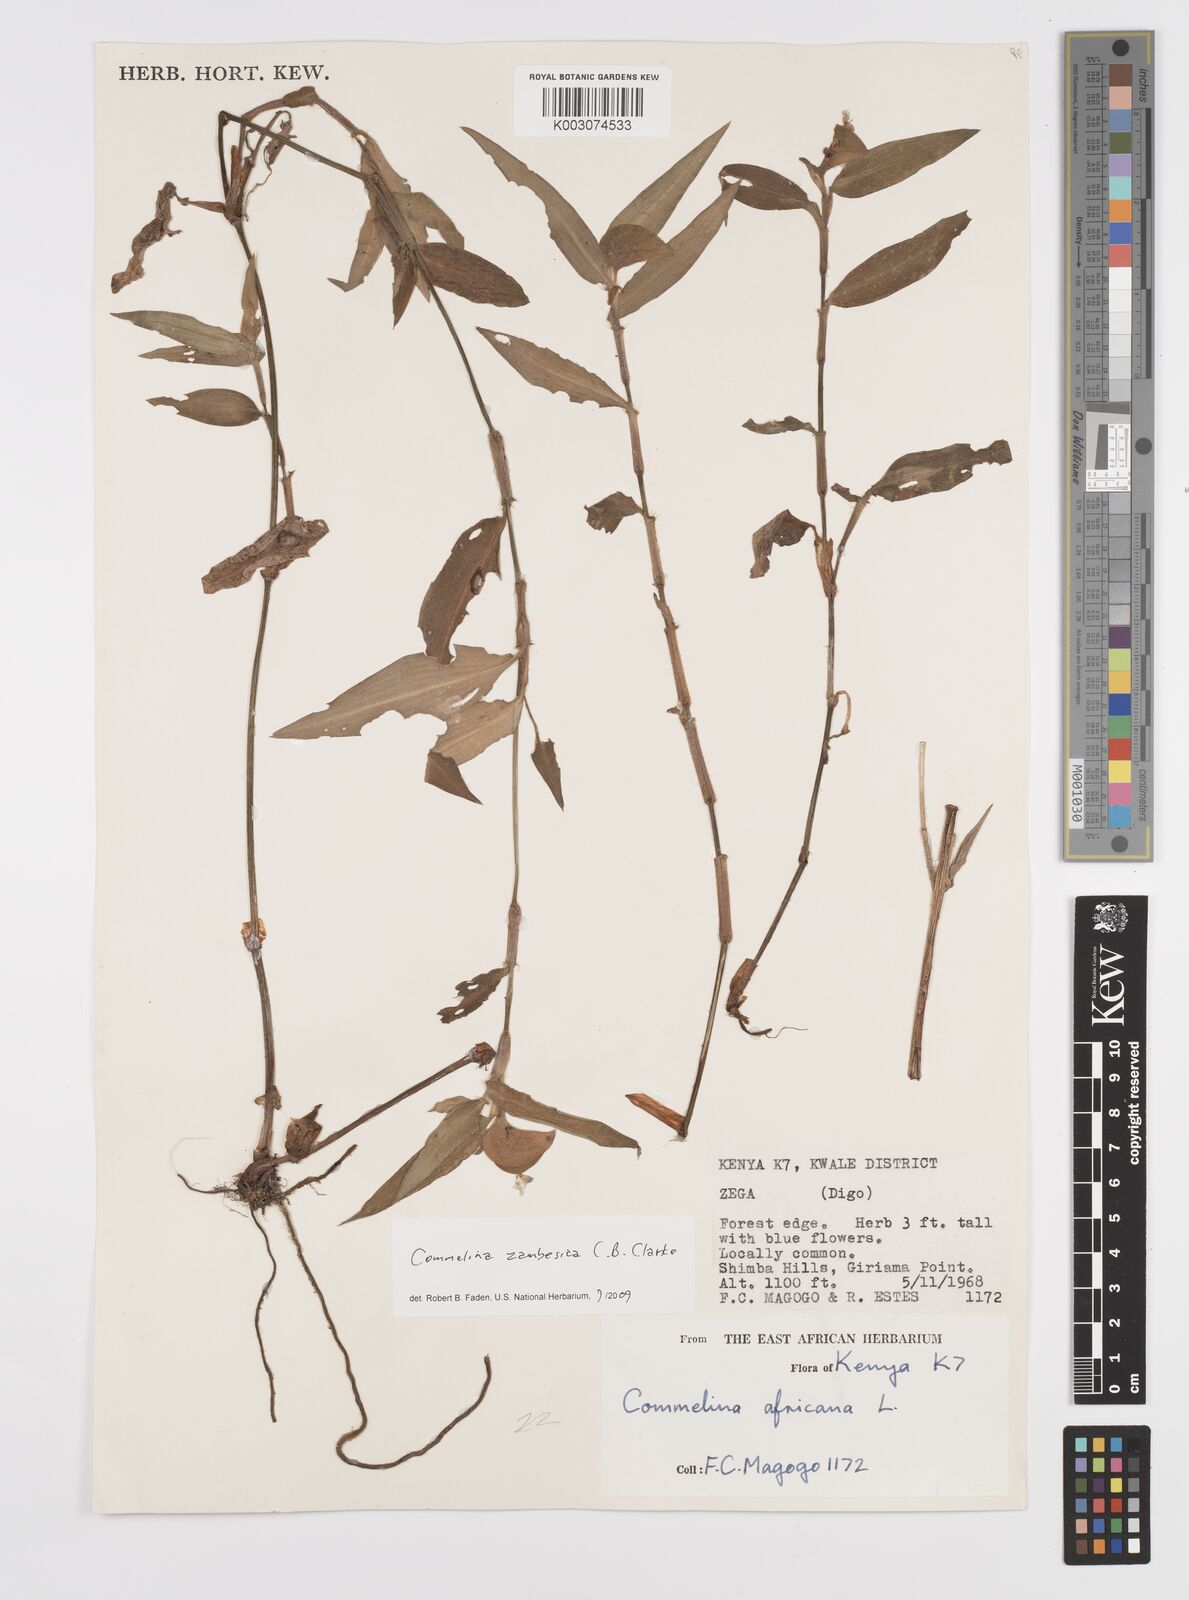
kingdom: Plantae
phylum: Tracheophyta
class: Liliopsida
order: Commelinales
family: Commelinaceae
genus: Commelina
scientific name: Commelina zambesica
